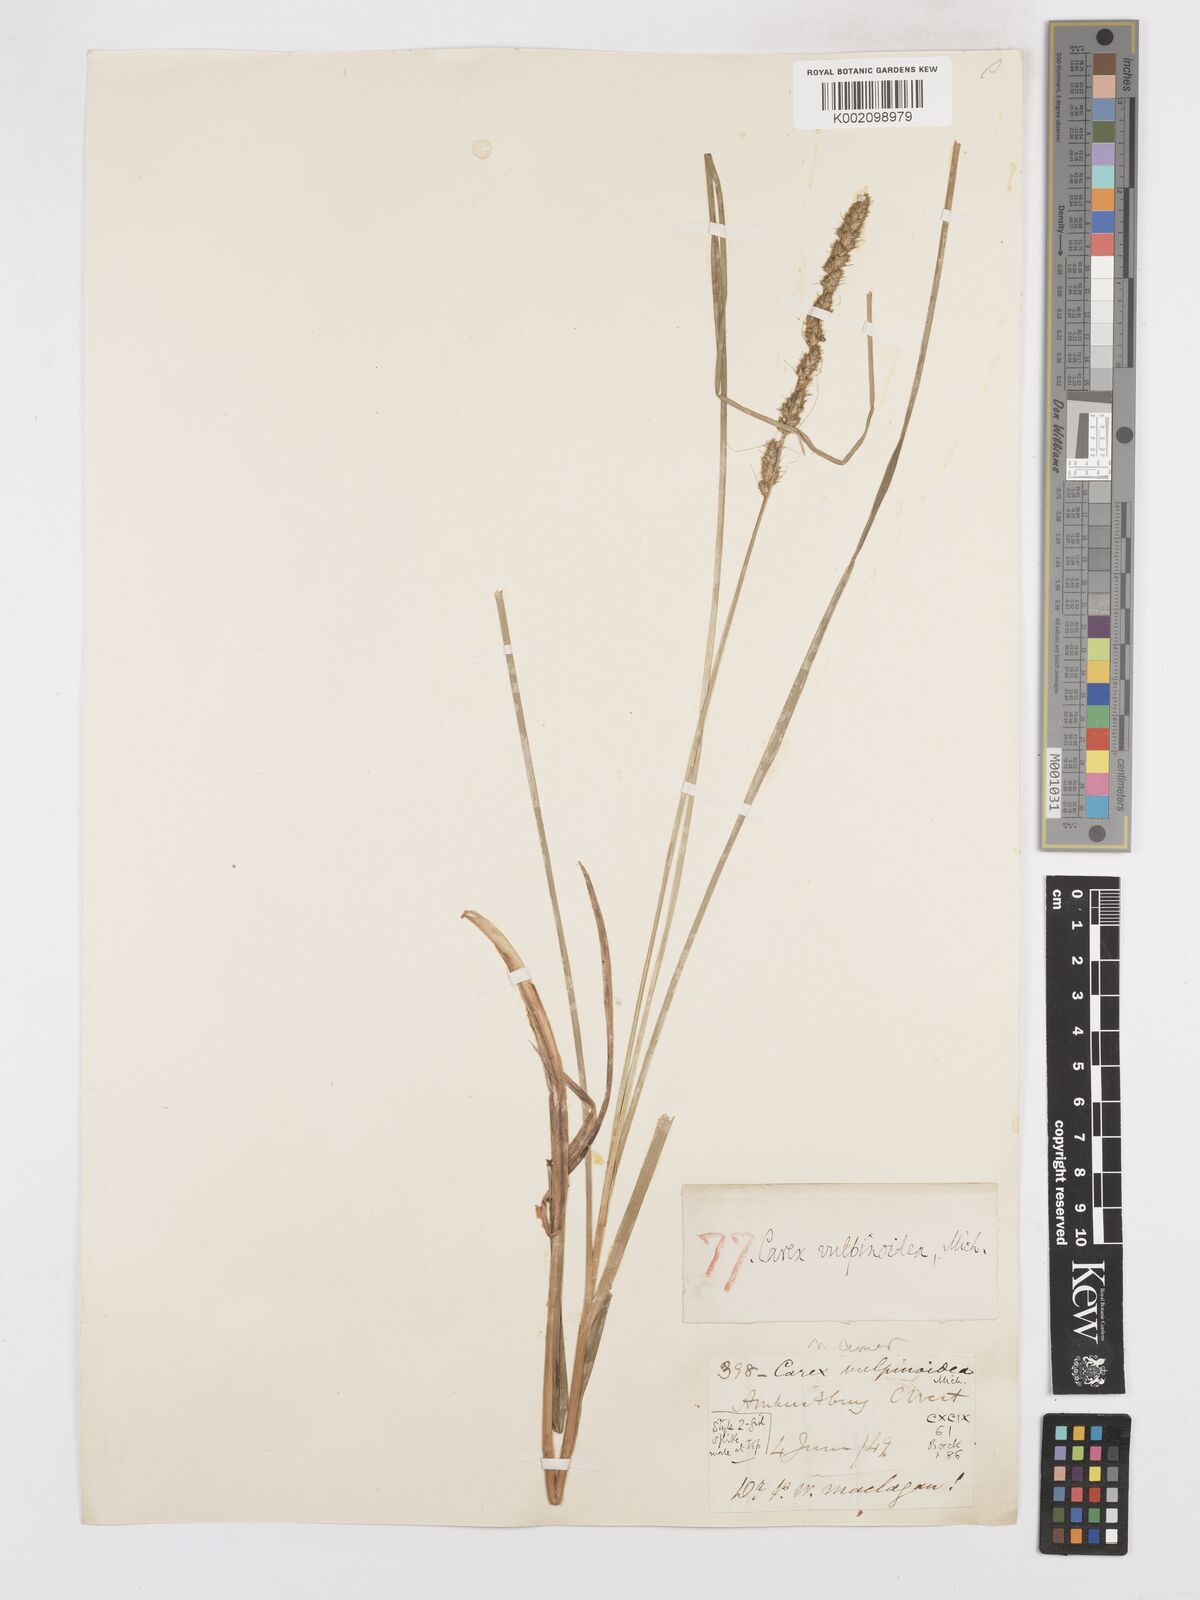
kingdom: Plantae
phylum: Tracheophyta
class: Liliopsida
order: Poales
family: Cyperaceae
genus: Carex
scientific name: Carex vulpinoidea
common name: American fox-sedge
